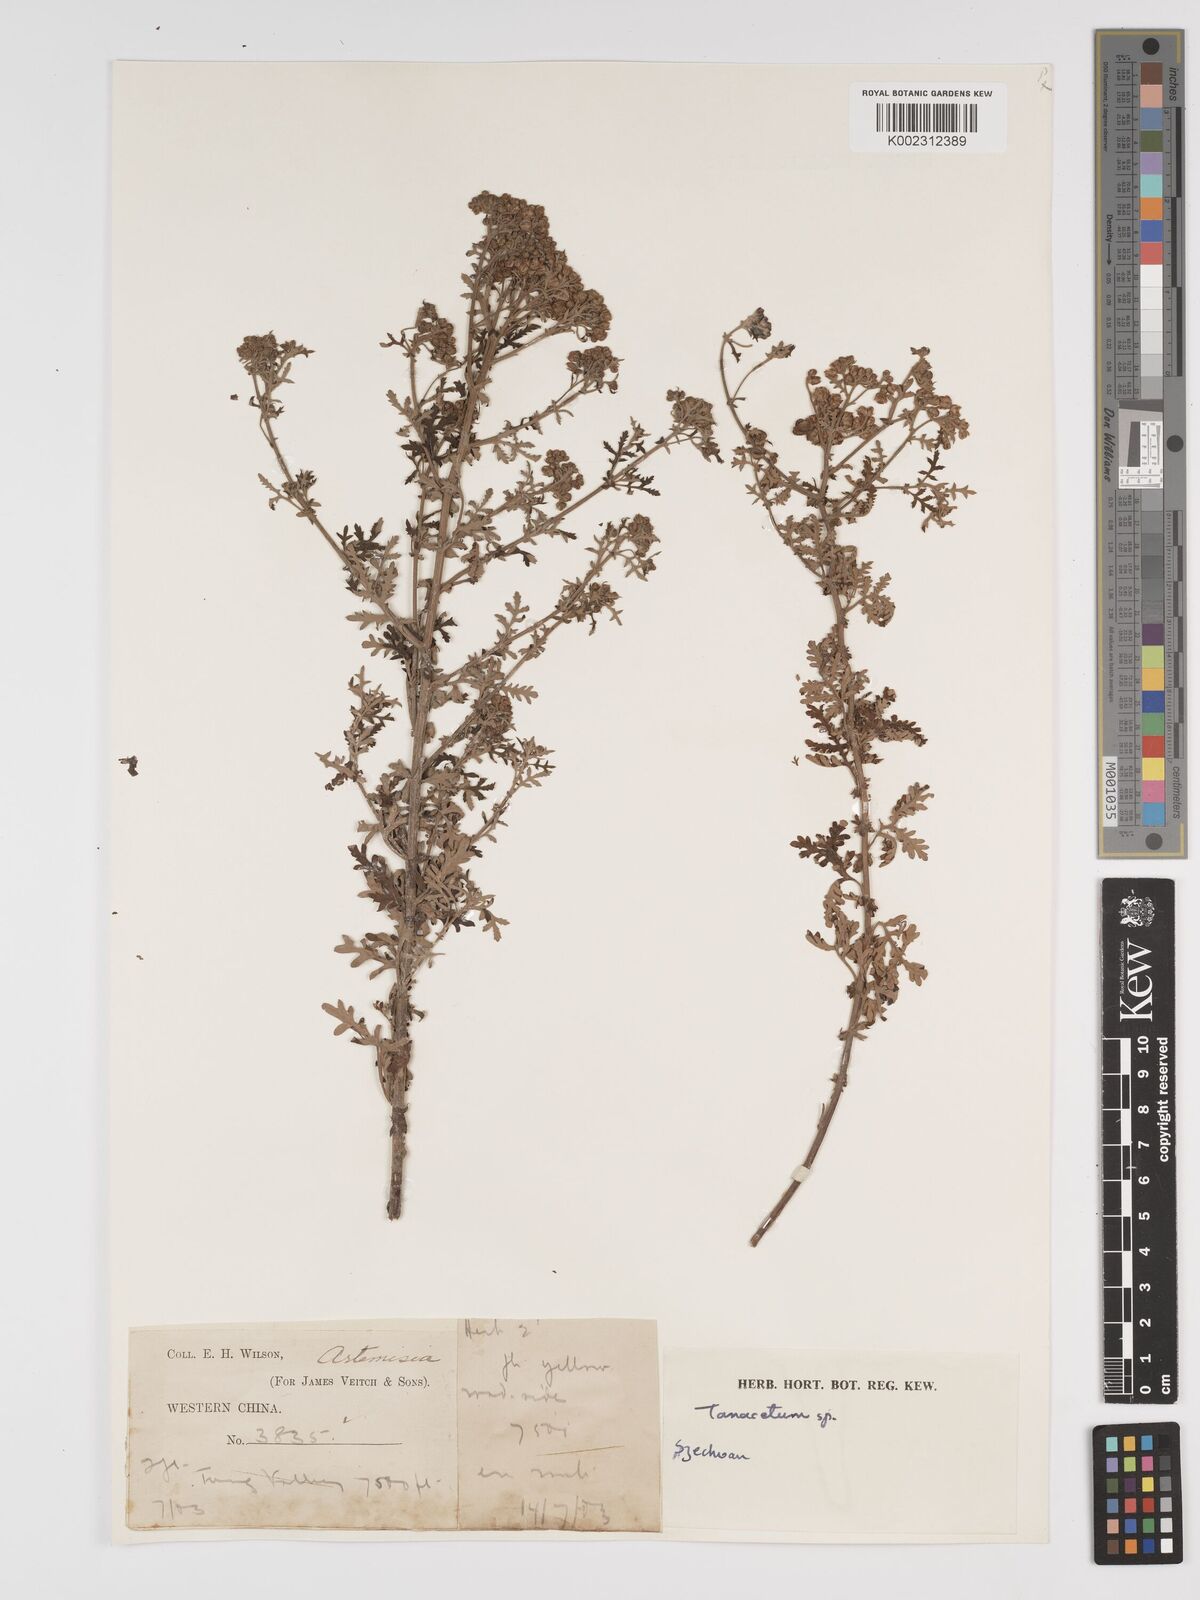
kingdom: Plantae
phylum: Tracheophyta
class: Magnoliopsida
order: Asterales
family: Asteraceae
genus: Tanacetum
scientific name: Tanacetum
